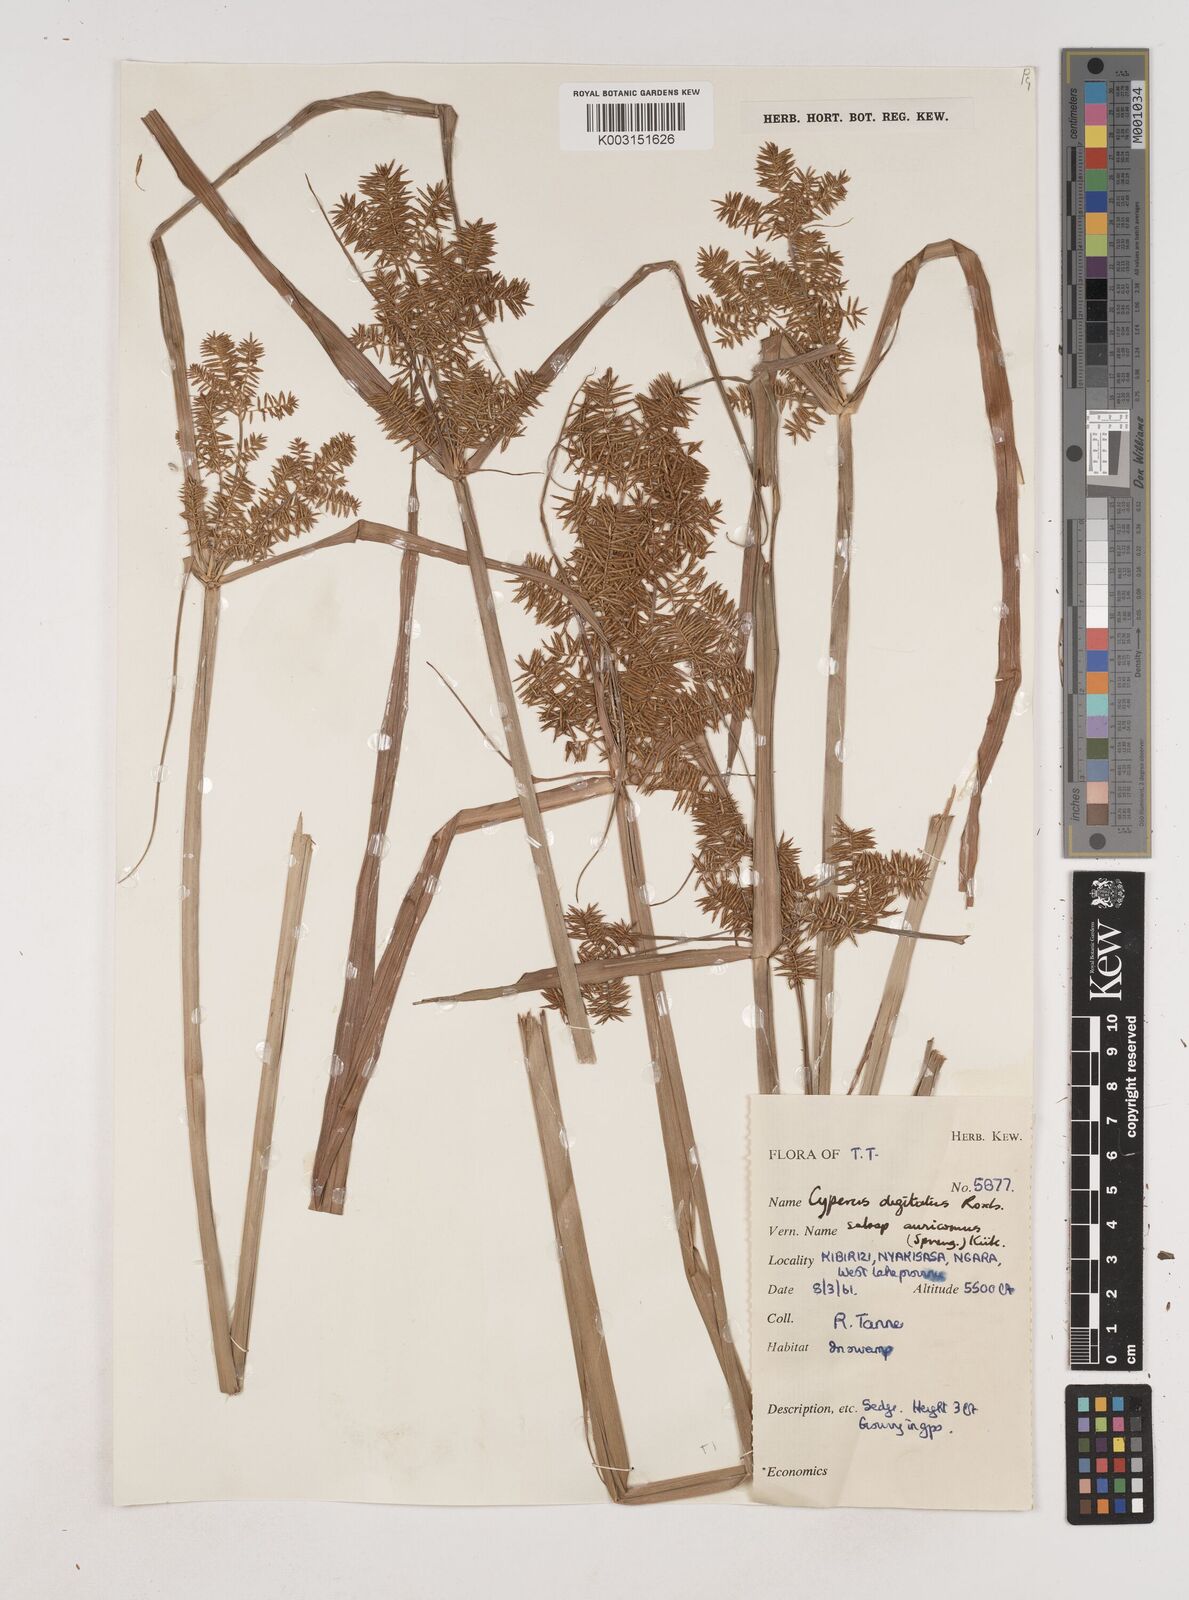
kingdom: Plantae
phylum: Tracheophyta
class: Liliopsida
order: Poales
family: Cyperaceae
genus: Cyperus
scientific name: Cyperus digitatus
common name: Finger flatsedge
